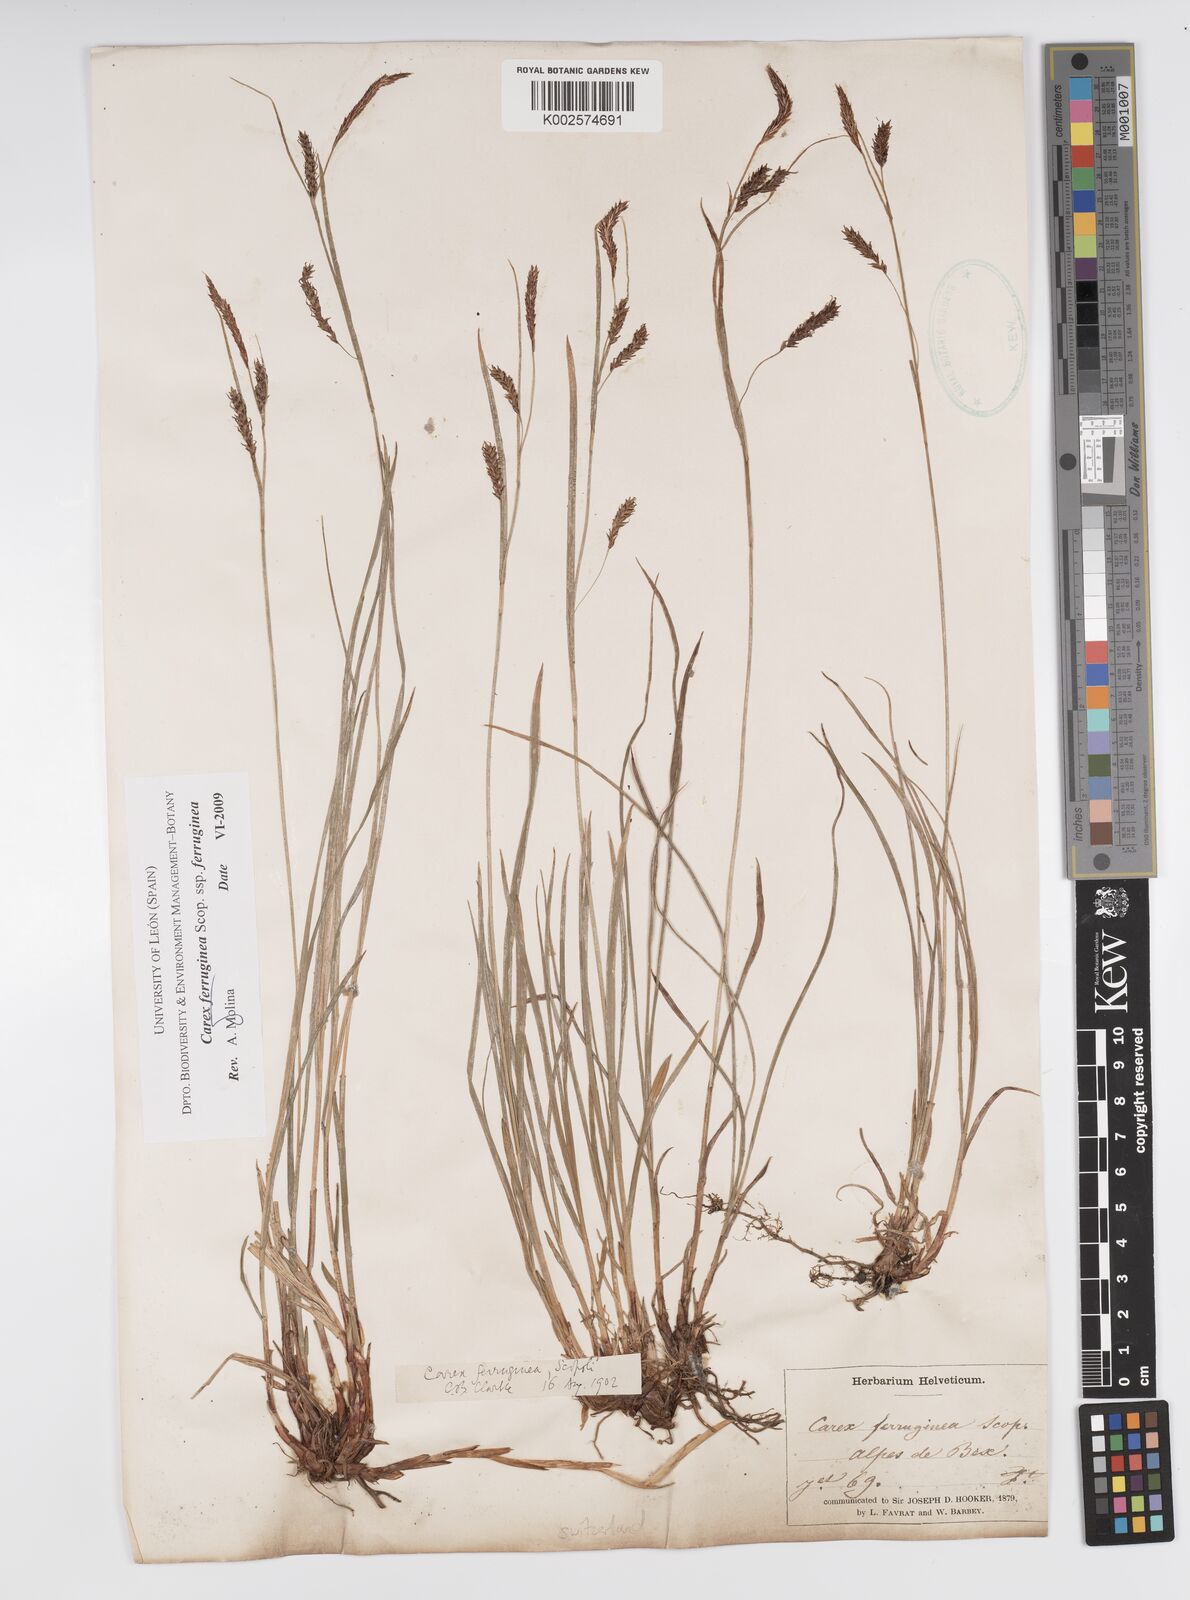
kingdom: Plantae
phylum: Tracheophyta
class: Liliopsida
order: Poales
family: Cyperaceae
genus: Carex
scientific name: Carex ferruginea
